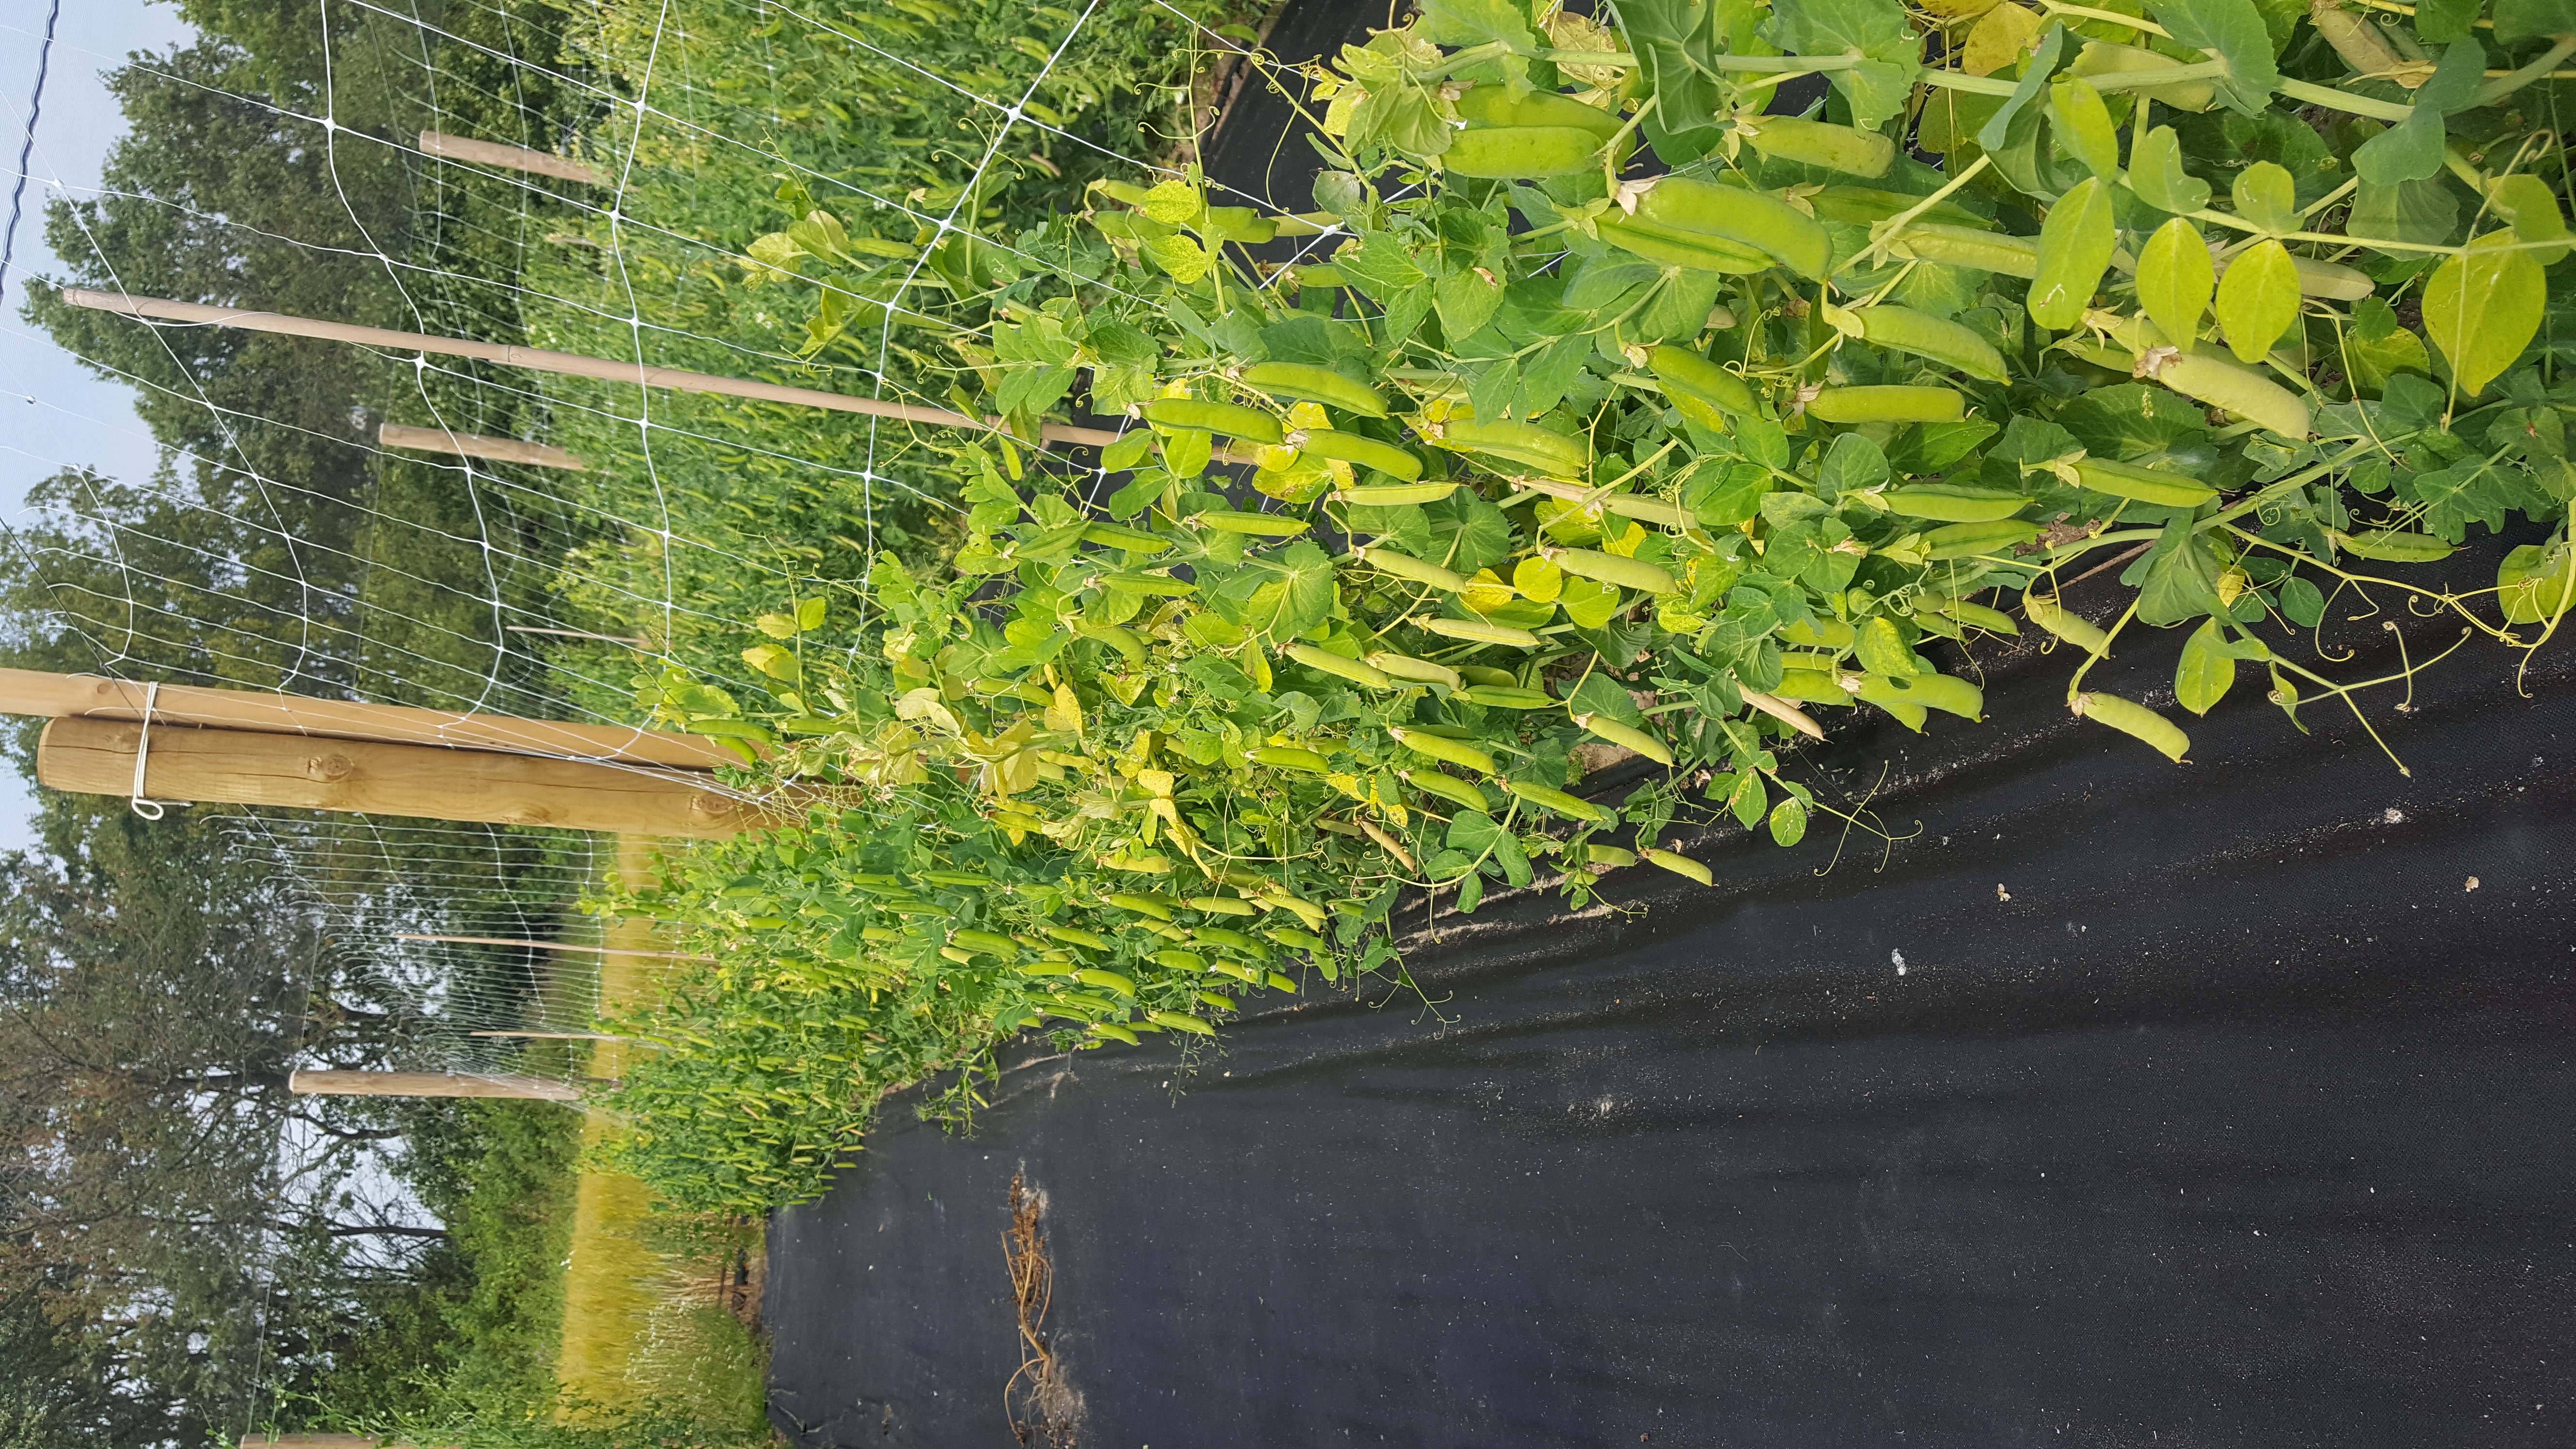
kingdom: Plantae
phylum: Tracheophyta
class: Magnoliopsida
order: Fabales
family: Fabaceae
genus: Lathyrus
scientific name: Lathyrus oleraceus
